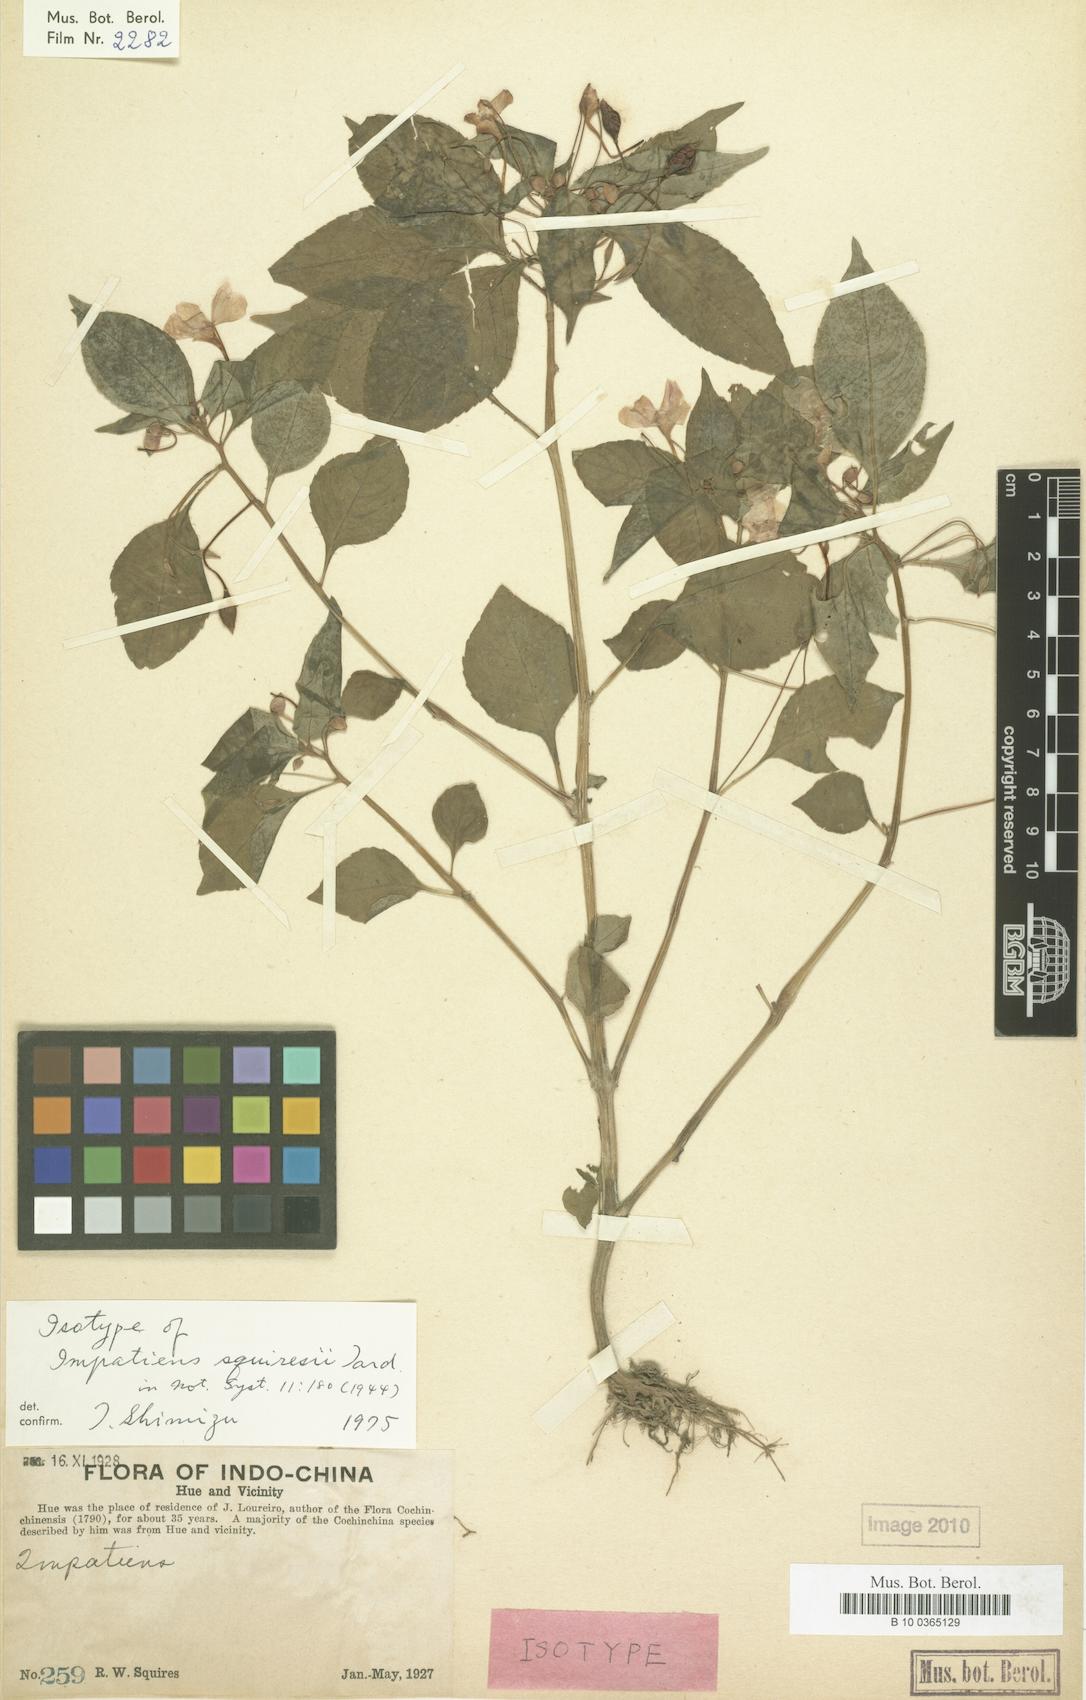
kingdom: Plantae
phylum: Tracheophyta
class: Magnoliopsida
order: Ericales
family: Balsaminaceae
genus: Impatiens
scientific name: Impatiens squiresii
